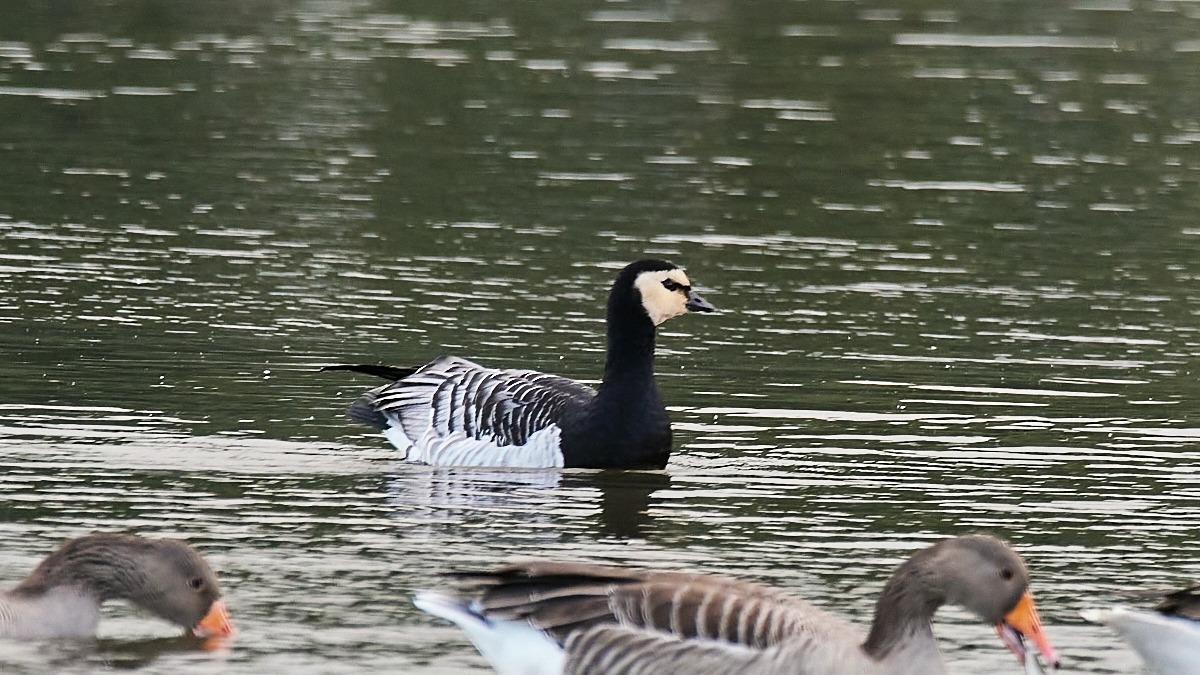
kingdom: Animalia
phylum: Chordata
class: Aves
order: Anseriformes
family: Anatidae
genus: Branta
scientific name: Branta leucopsis
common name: Bramgås
